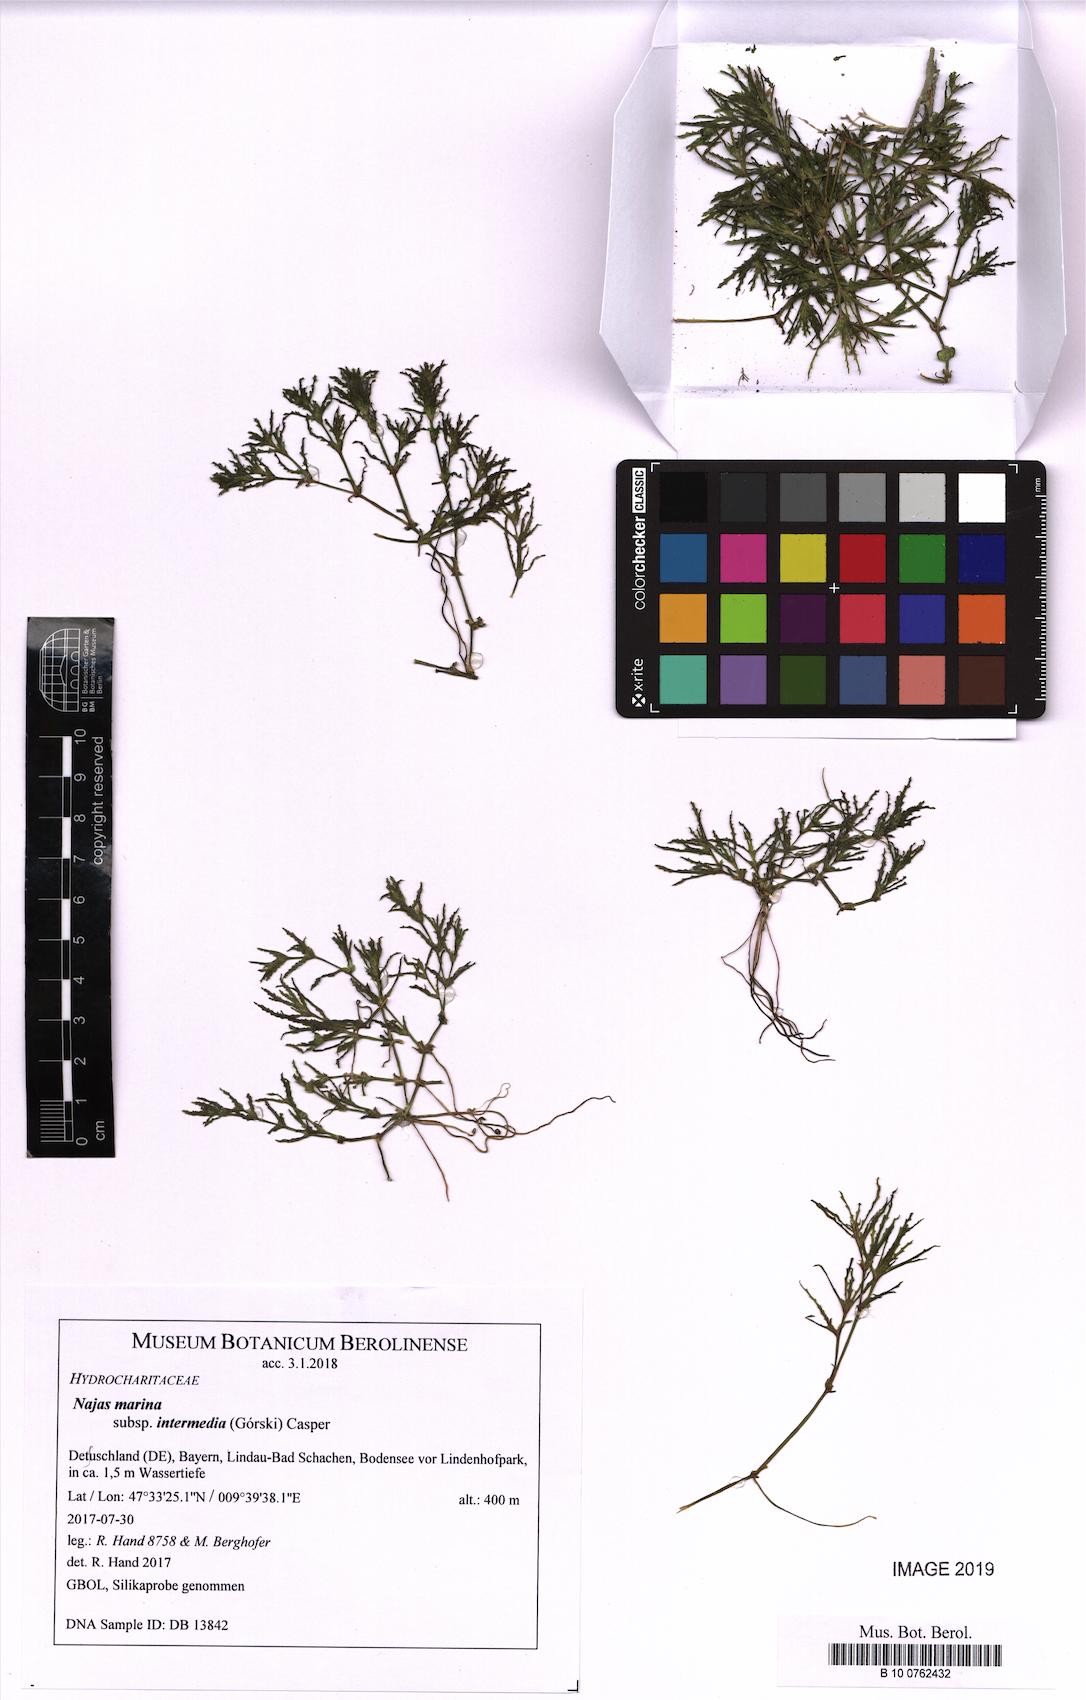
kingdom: Plantae
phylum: Tracheophyta
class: Liliopsida
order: Alismatales
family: Hydrocharitaceae
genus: Najas
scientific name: Najas marina
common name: Holly-leaved naiad
